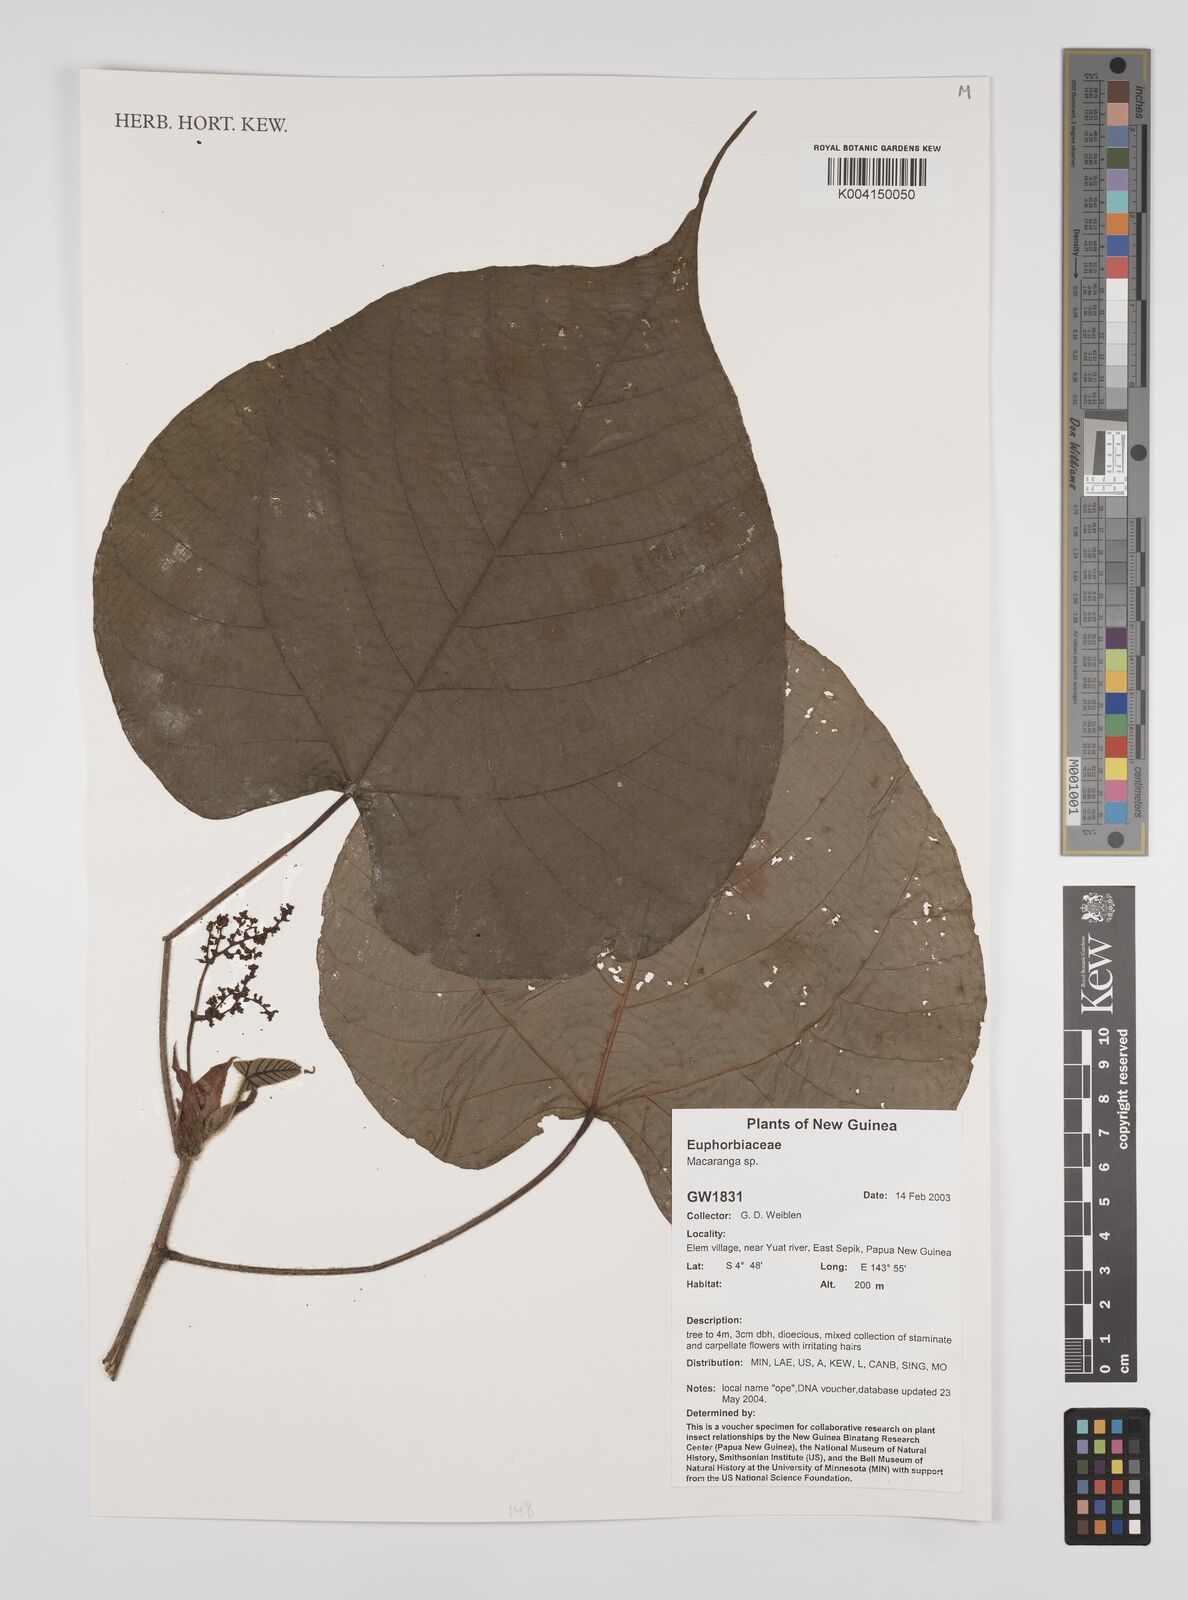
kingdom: Plantae
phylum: Tracheophyta
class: Magnoliopsida
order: Malpighiales
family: Euphorbiaceae
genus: Macaranga
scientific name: Macaranga
